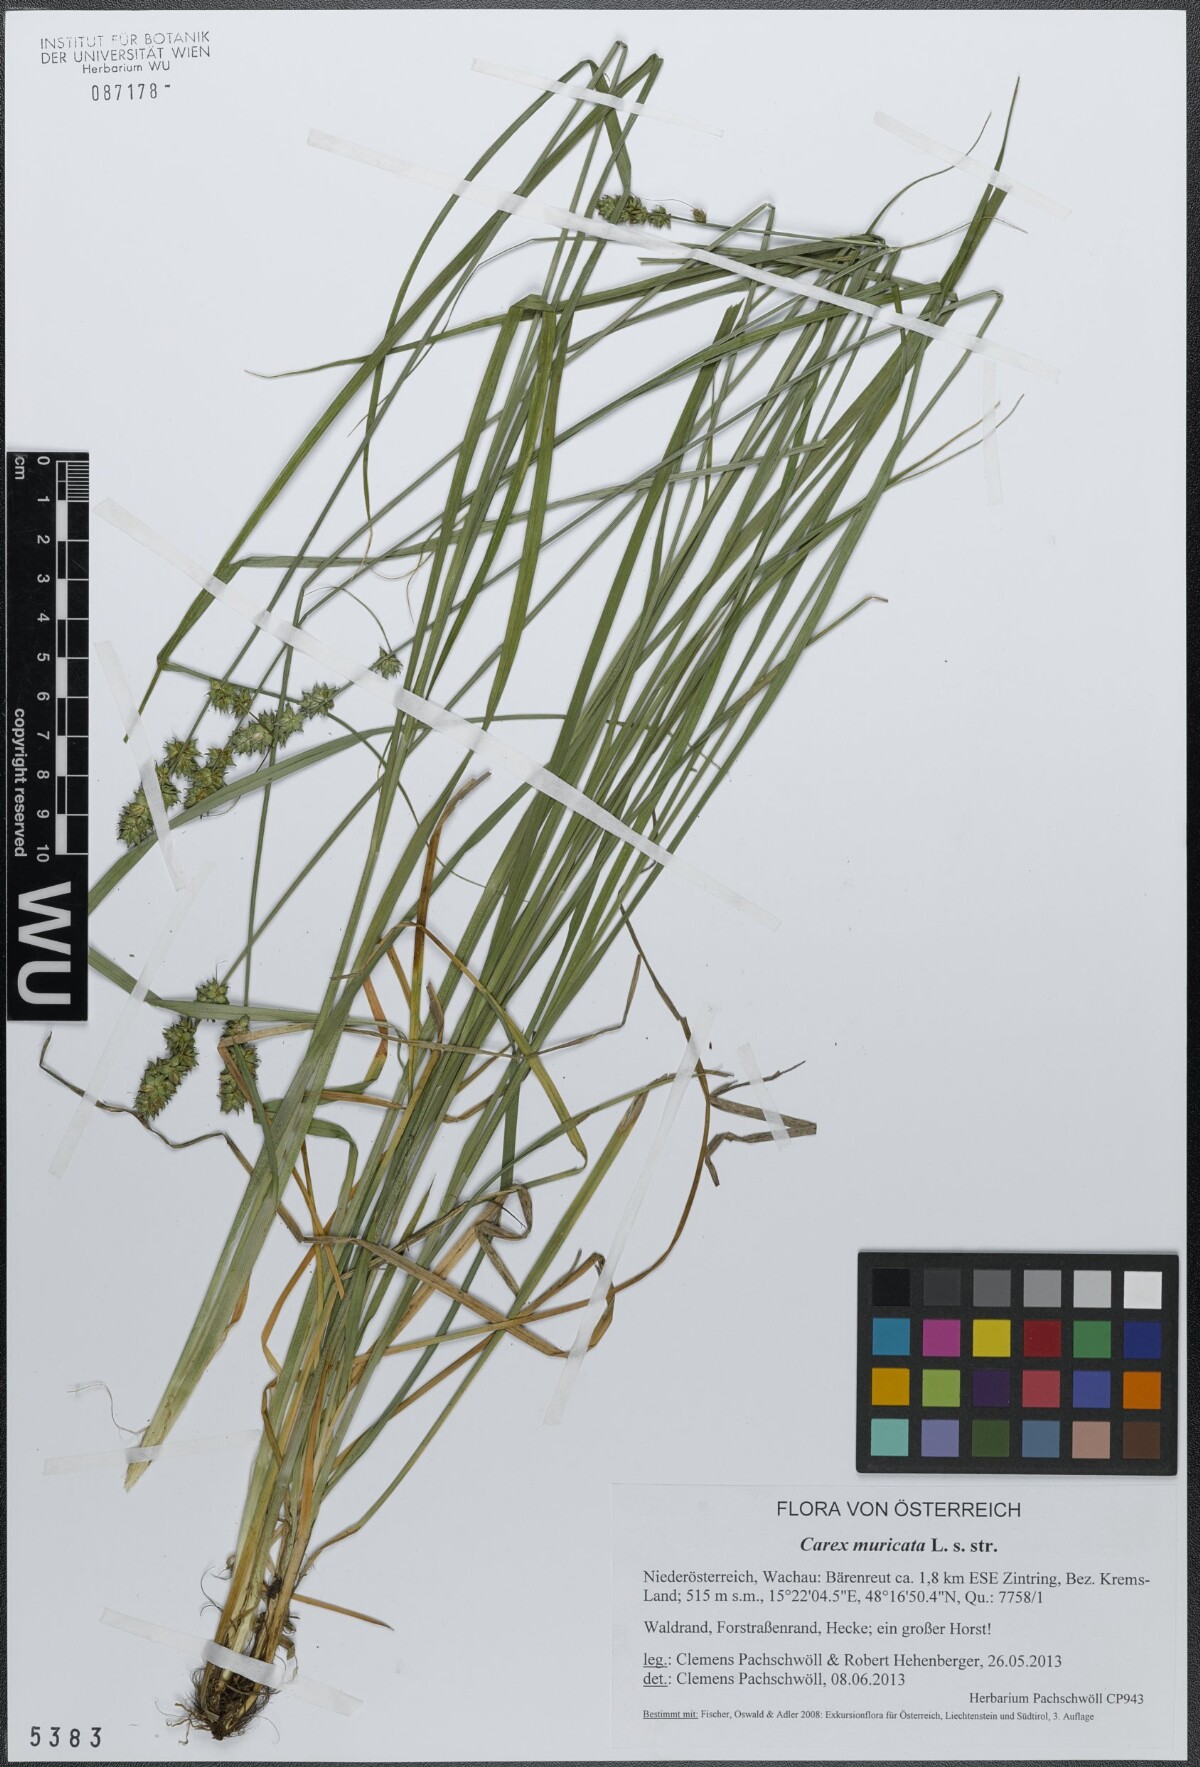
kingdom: Plantae
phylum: Tracheophyta
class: Liliopsida
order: Poales
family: Cyperaceae
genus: Carex
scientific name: Carex muricata
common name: Rough sedge
